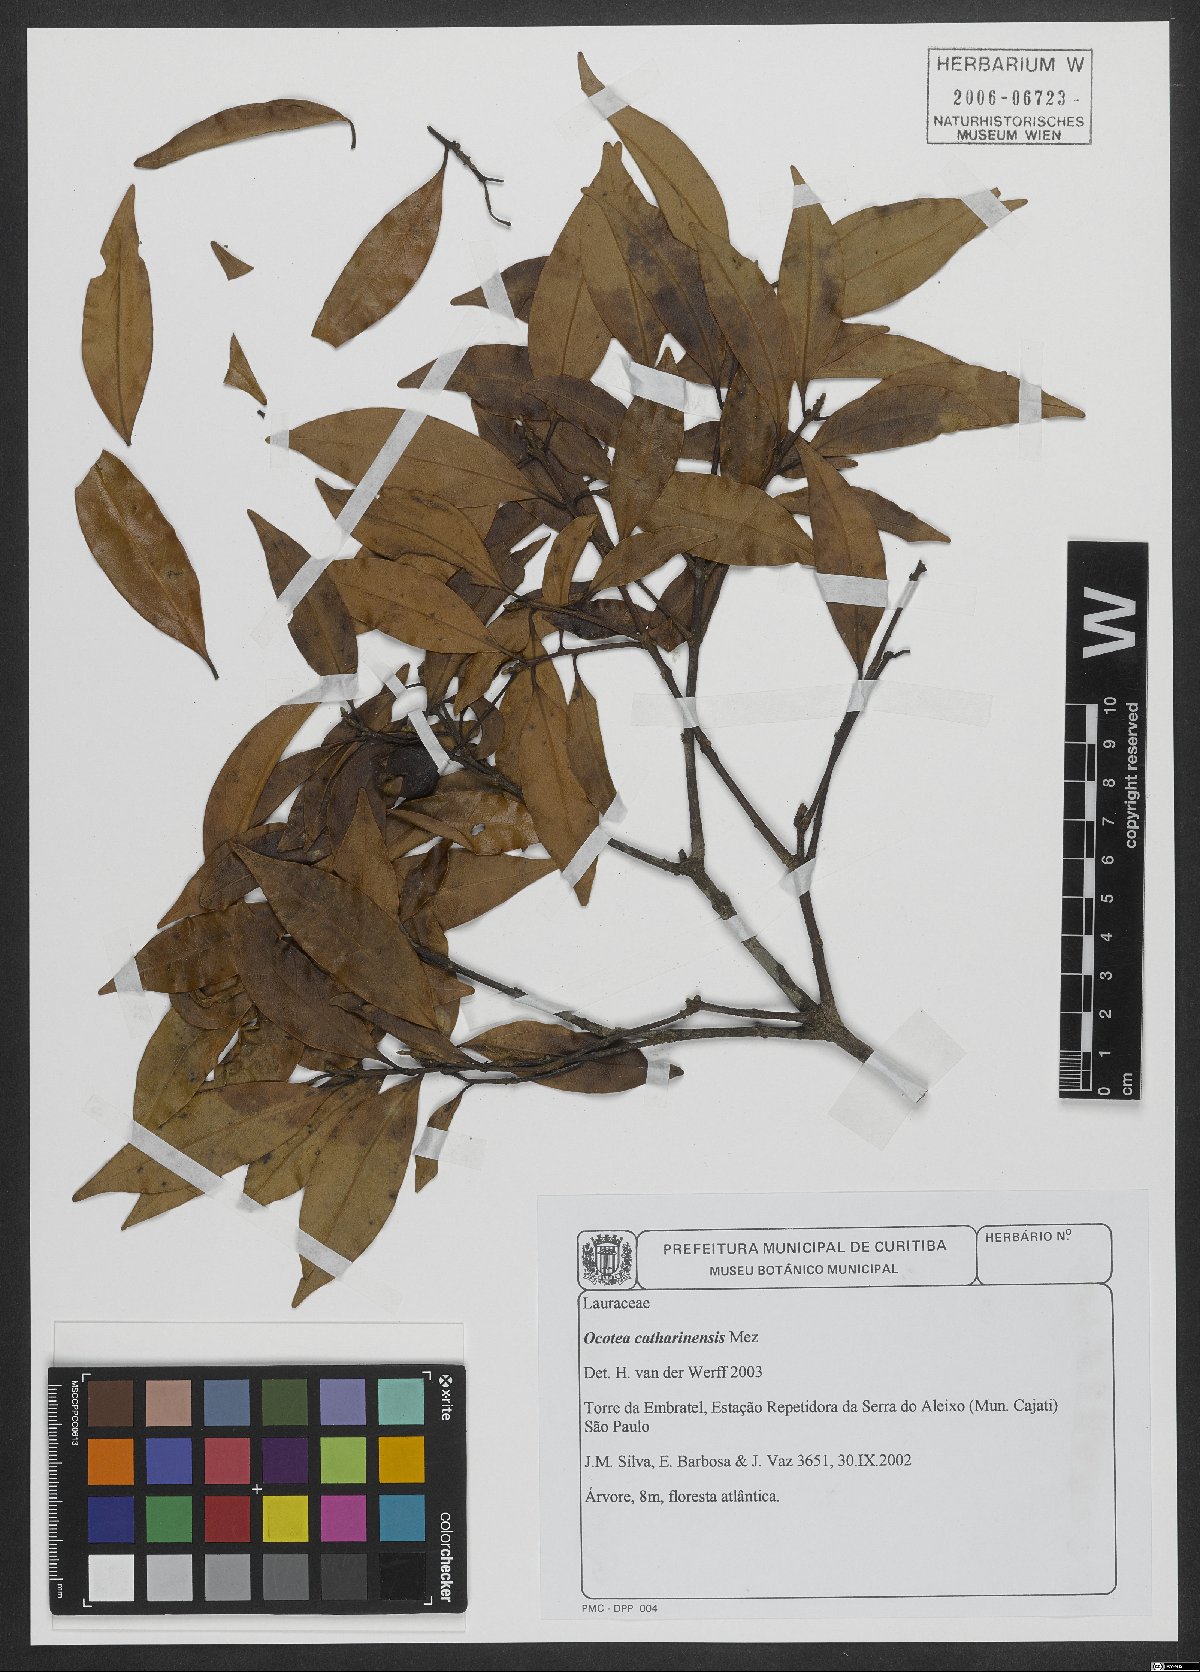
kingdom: Plantae
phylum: Tracheophyta
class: Magnoliopsida
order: Laurales
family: Lauraceae
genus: Ocotea
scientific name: Ocotea catharinensis
